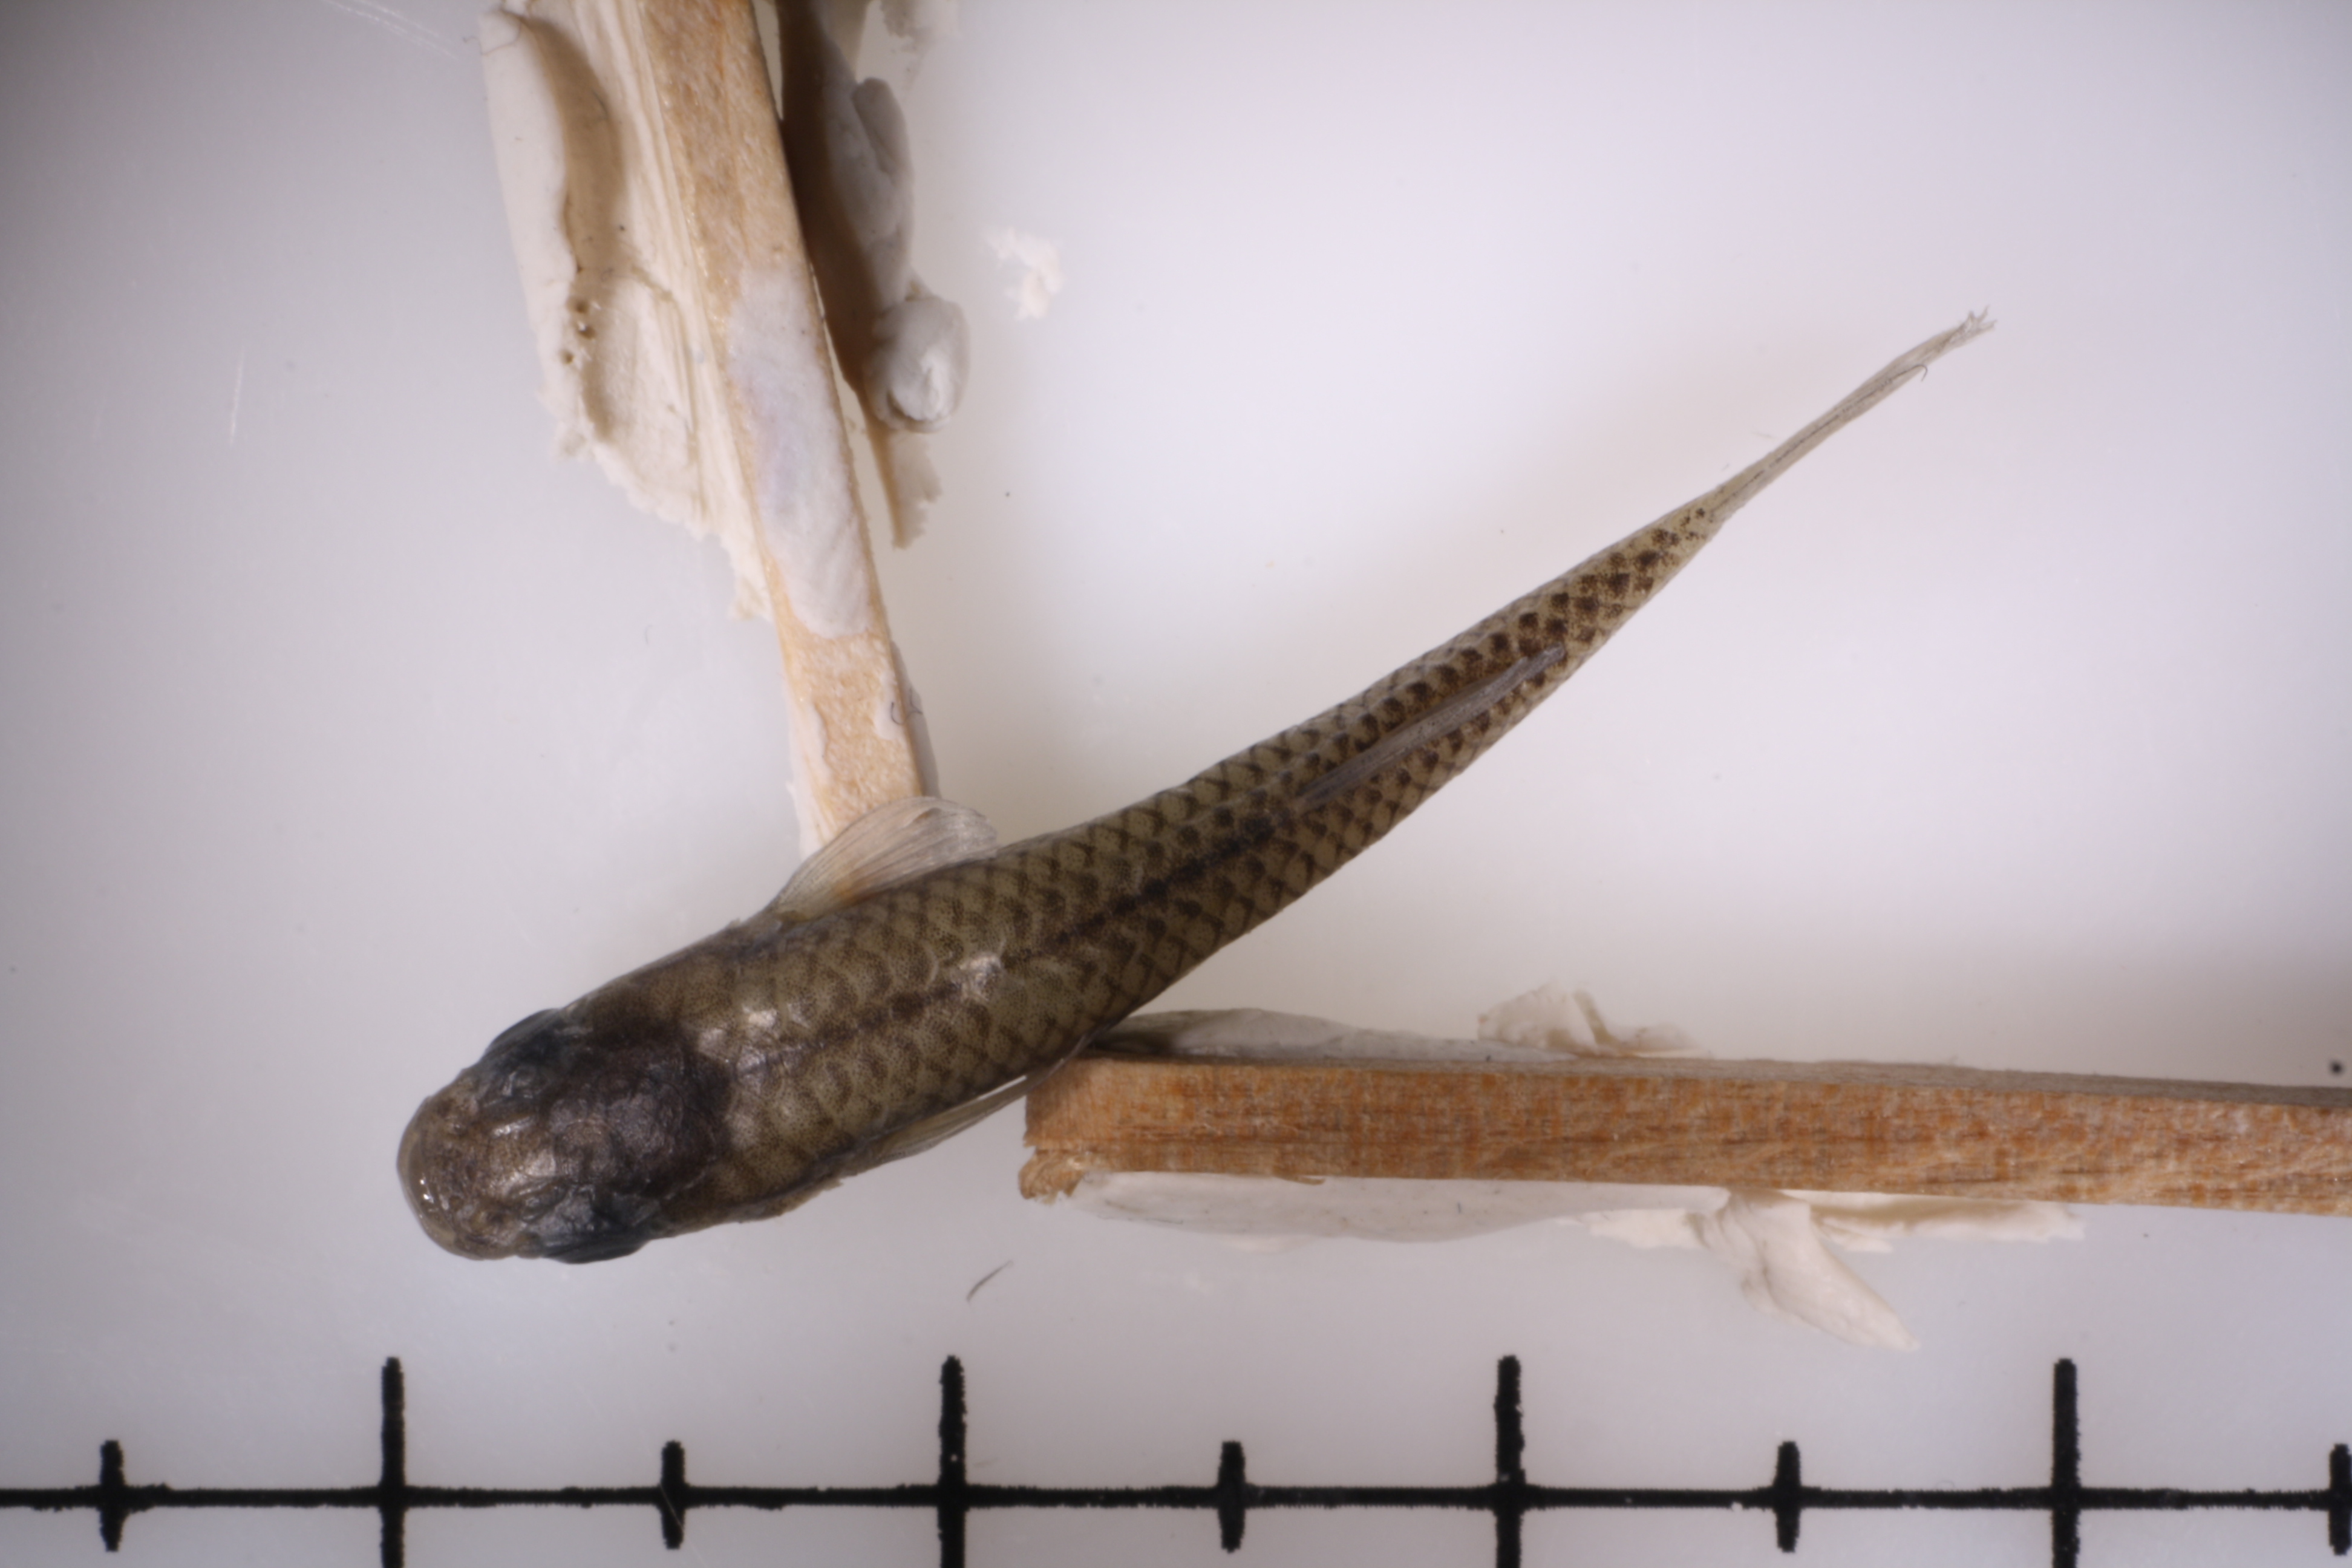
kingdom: Animalia
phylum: Chordata
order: Cyprinodontiformes
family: Poeciliidae
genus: Gambusia
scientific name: Gambusia speciosa
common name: Tex-mex gambusia
